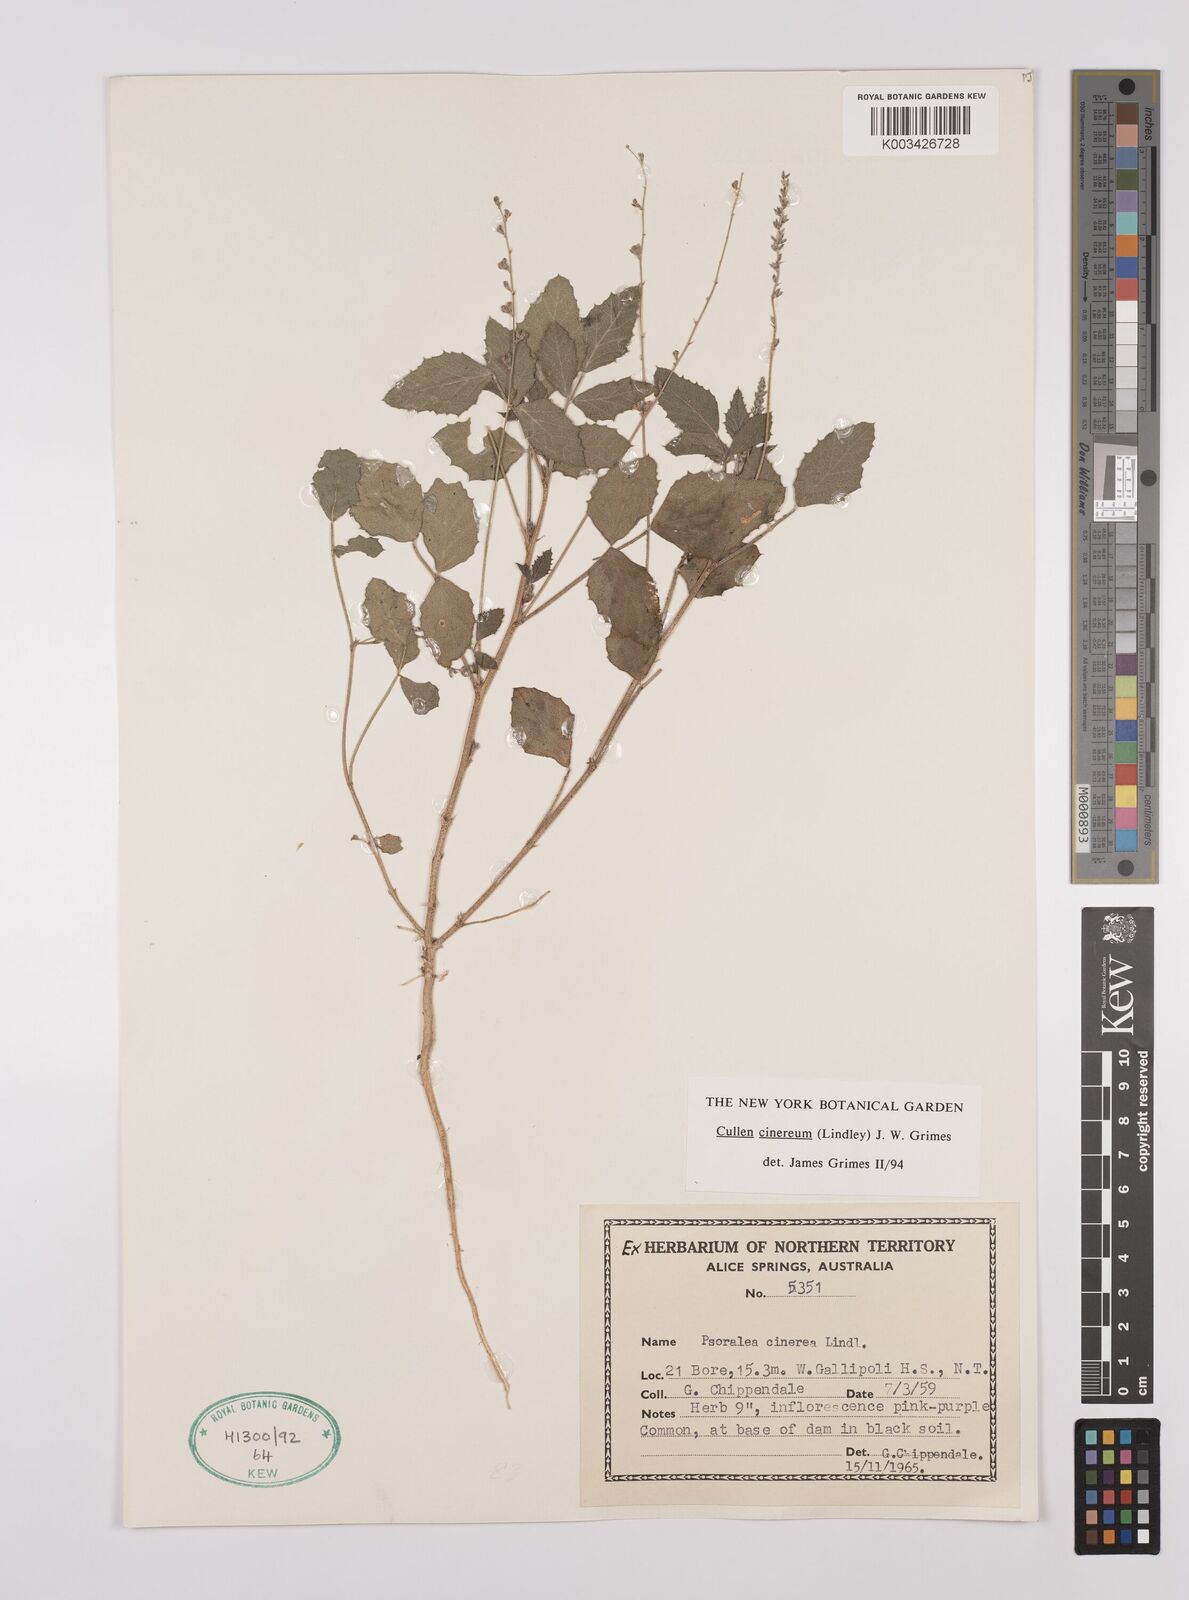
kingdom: Plantae
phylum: Tracheophyta
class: Magnoliopsida
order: Fabales
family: Fabaceae
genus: Cullen
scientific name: Cullen cinereum
